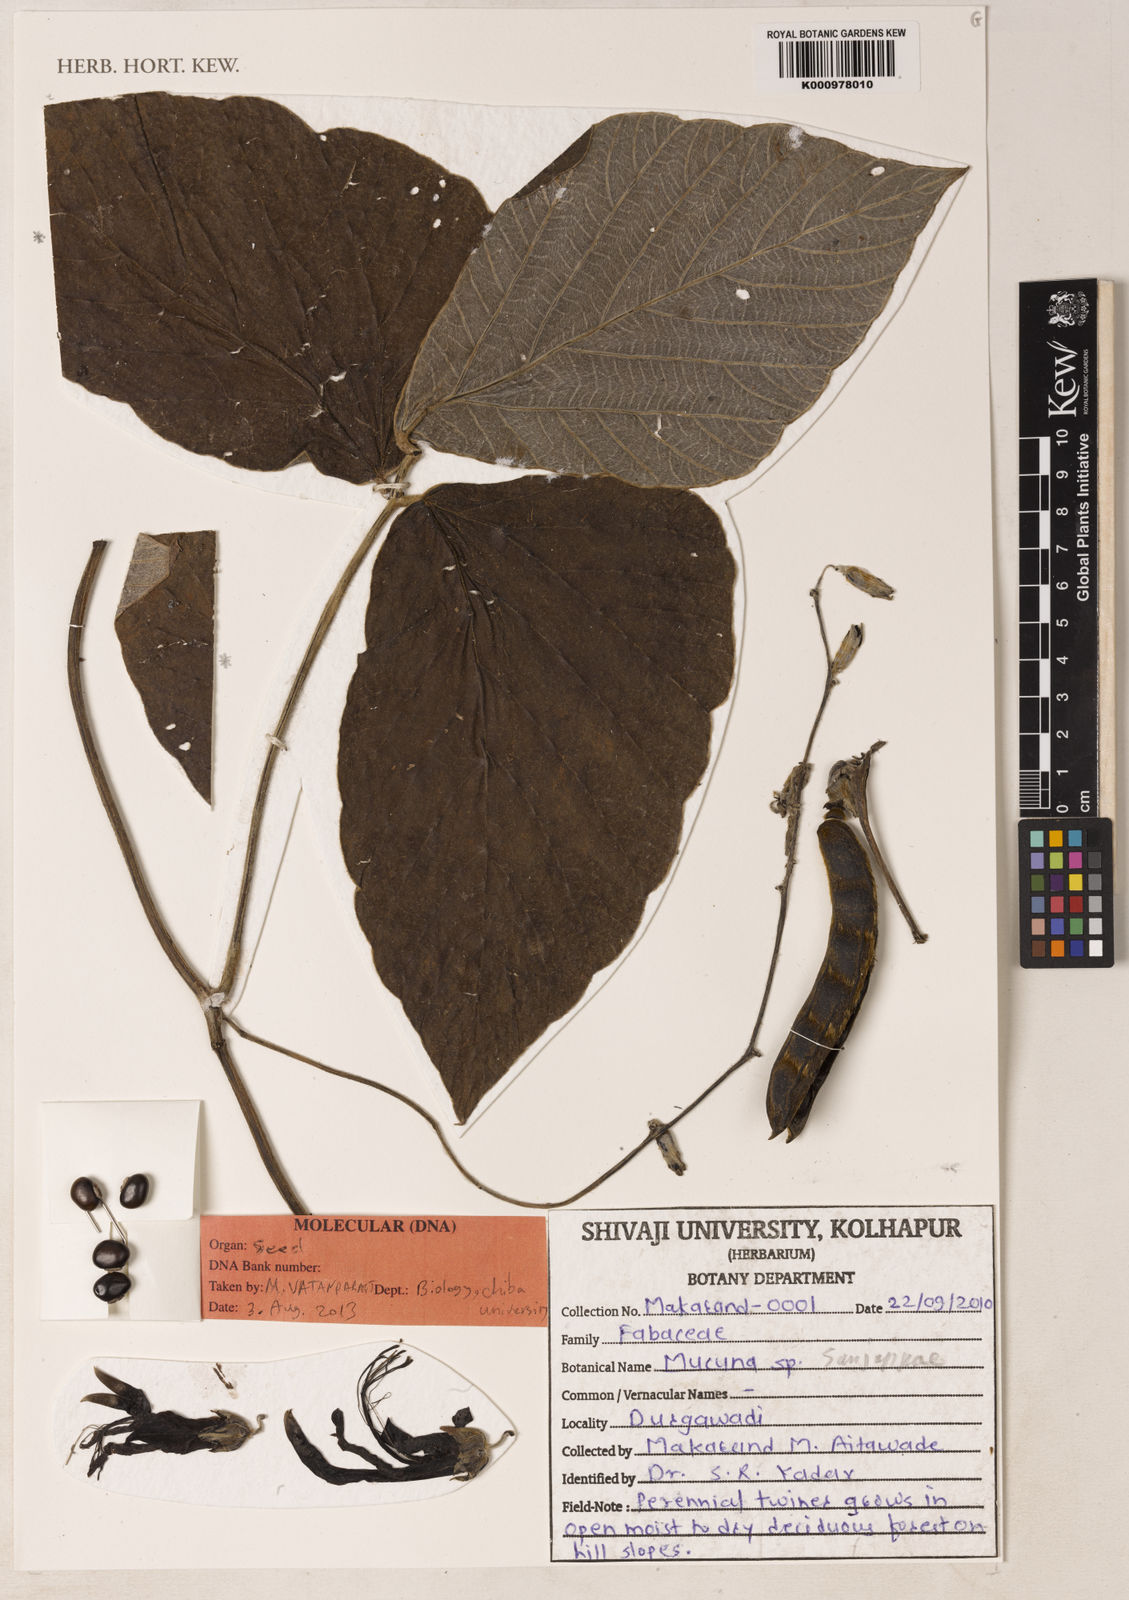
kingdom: Plantae
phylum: Tracheophyta
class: Magnoliopsida
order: Fabales
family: Fabaceae
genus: Mucuna
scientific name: Mucuna sanjappae
